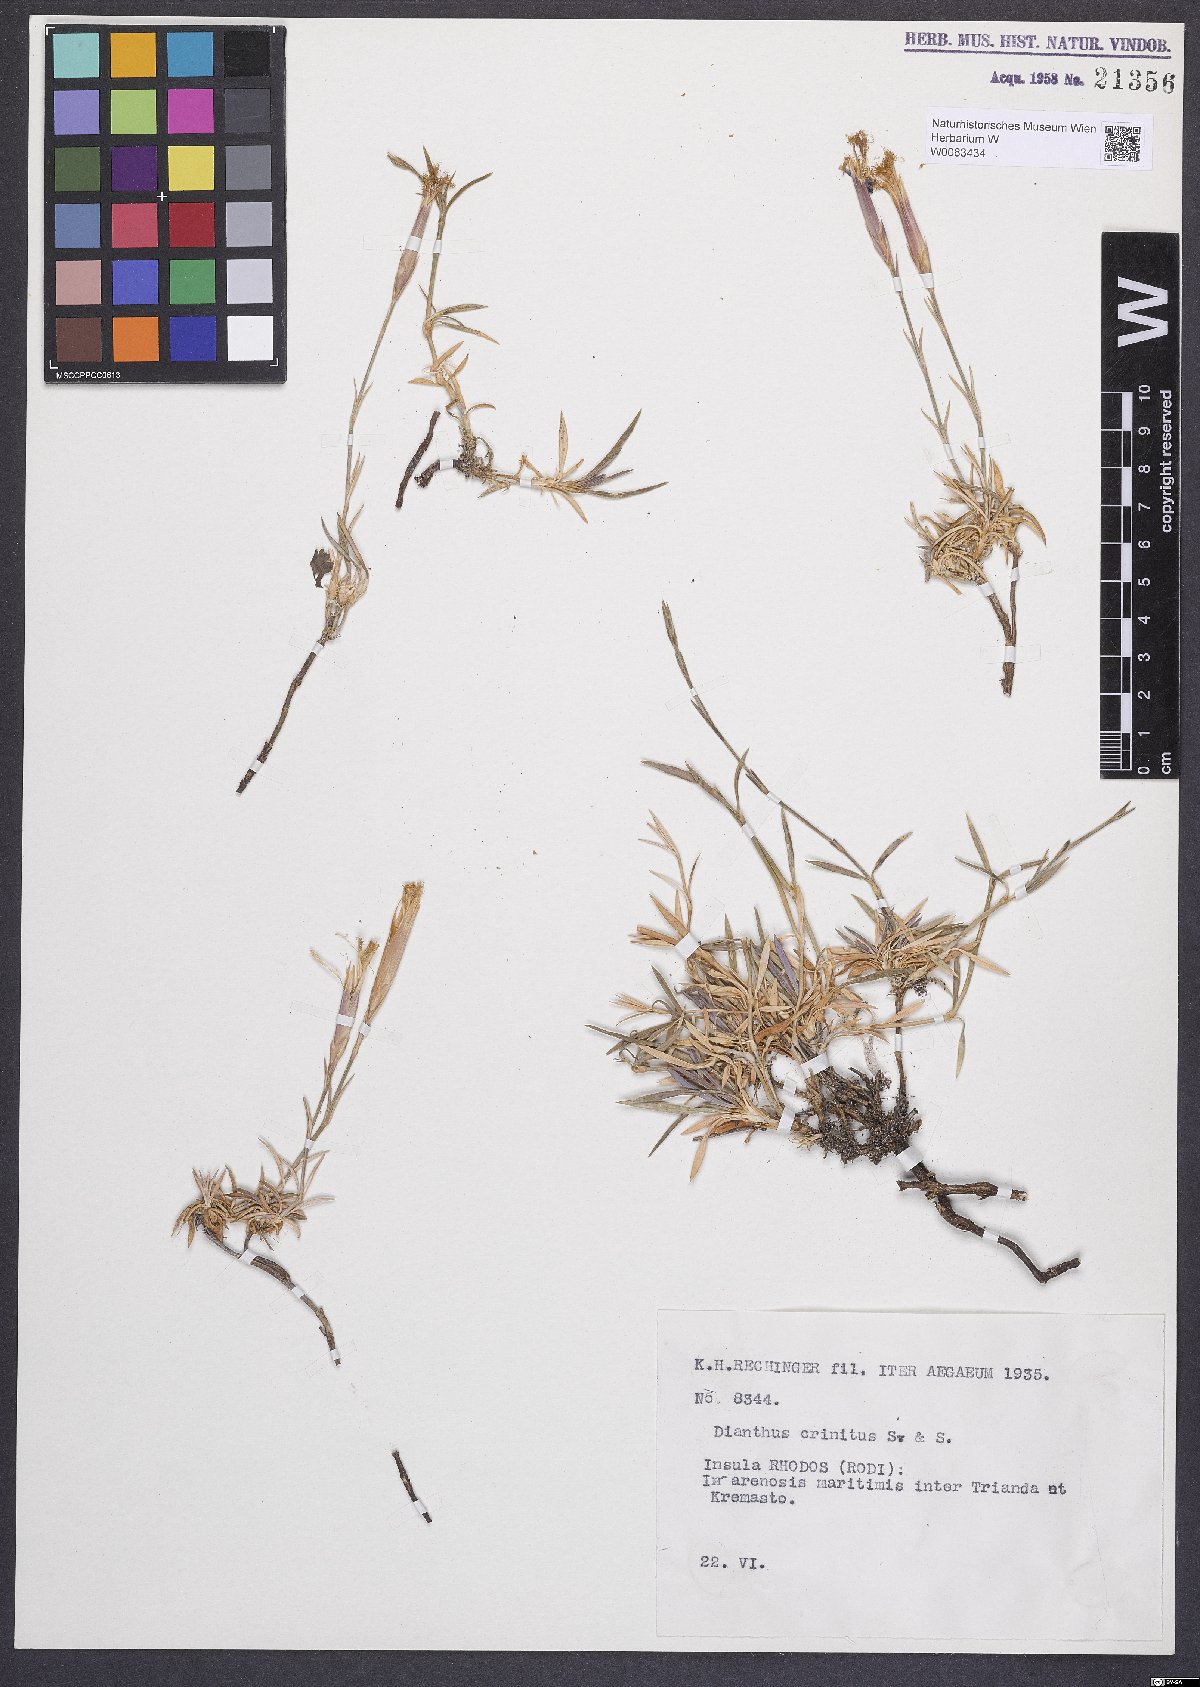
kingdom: Plantae
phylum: Tracheophyta
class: Magnoliopsida
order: Caryophyllales
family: Caryophyllaceae
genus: Dianthus
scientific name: Dianthus crinitus
